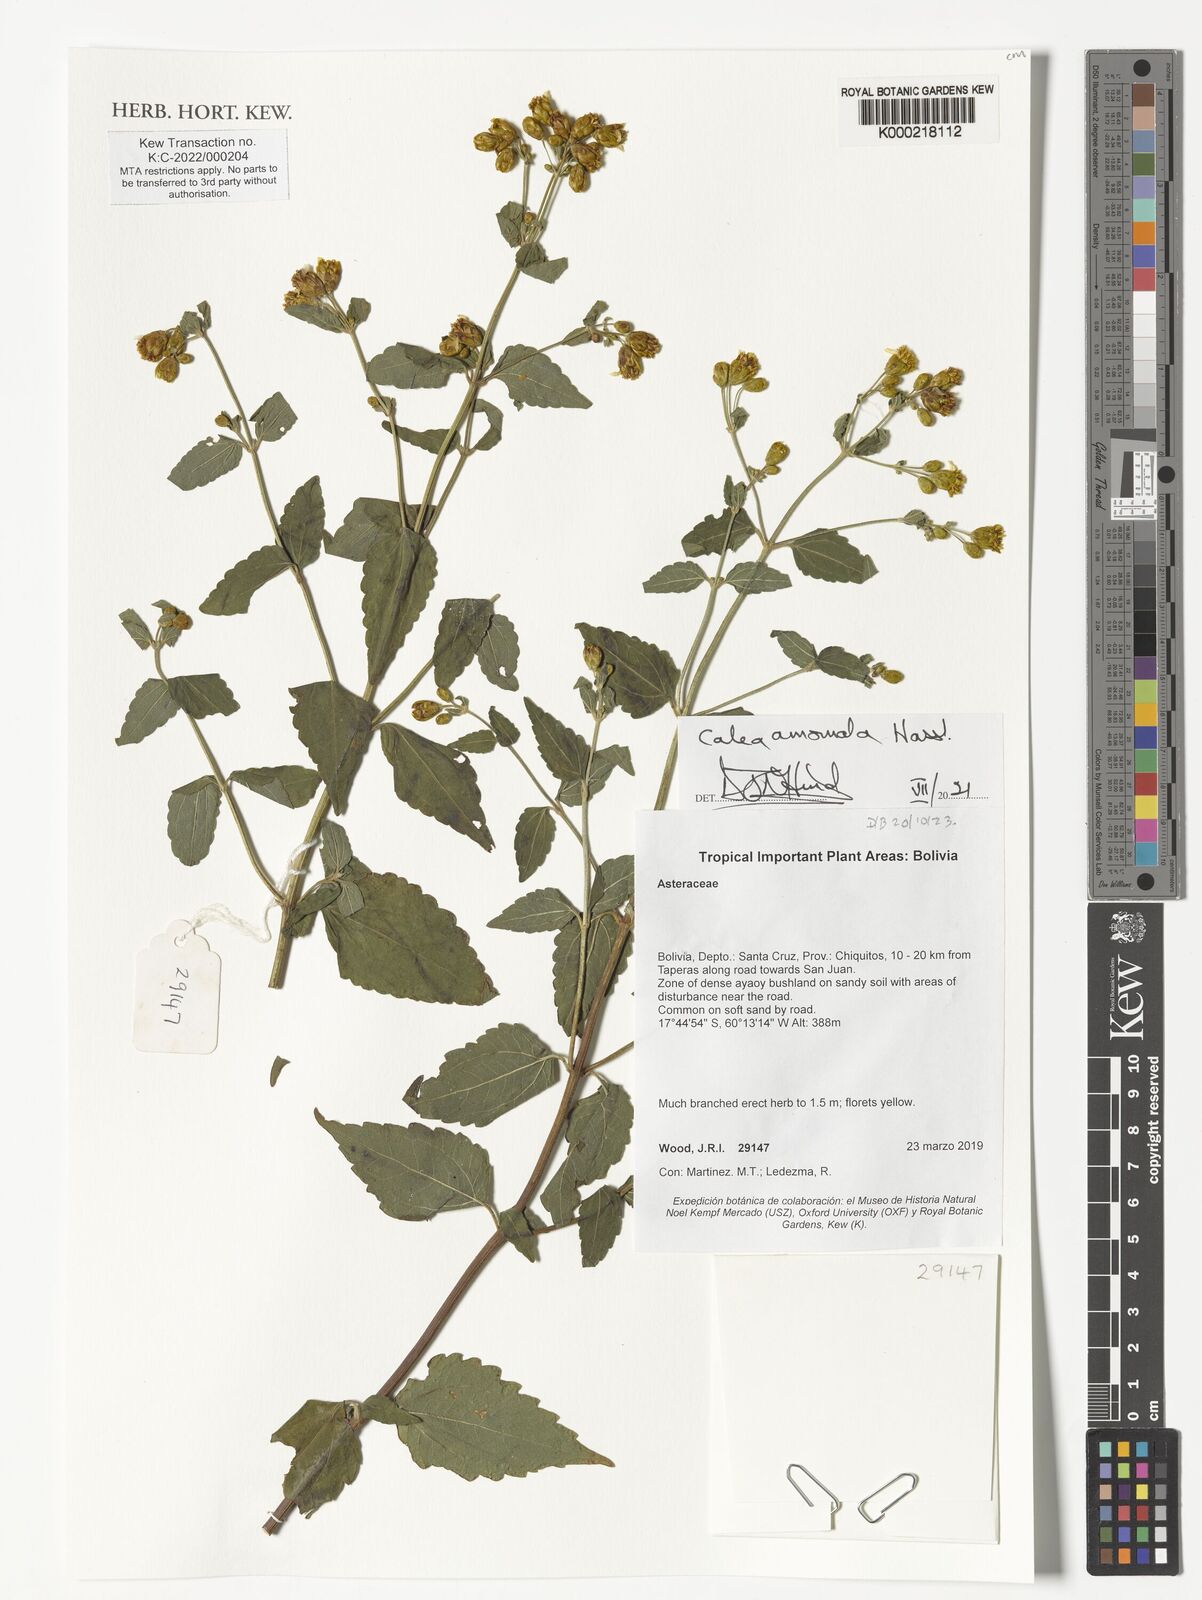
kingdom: Plantae
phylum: Tracheophyta
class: Magnoliopsida
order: Asterales
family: Asteraceae
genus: Calea
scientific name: Calea anomala
